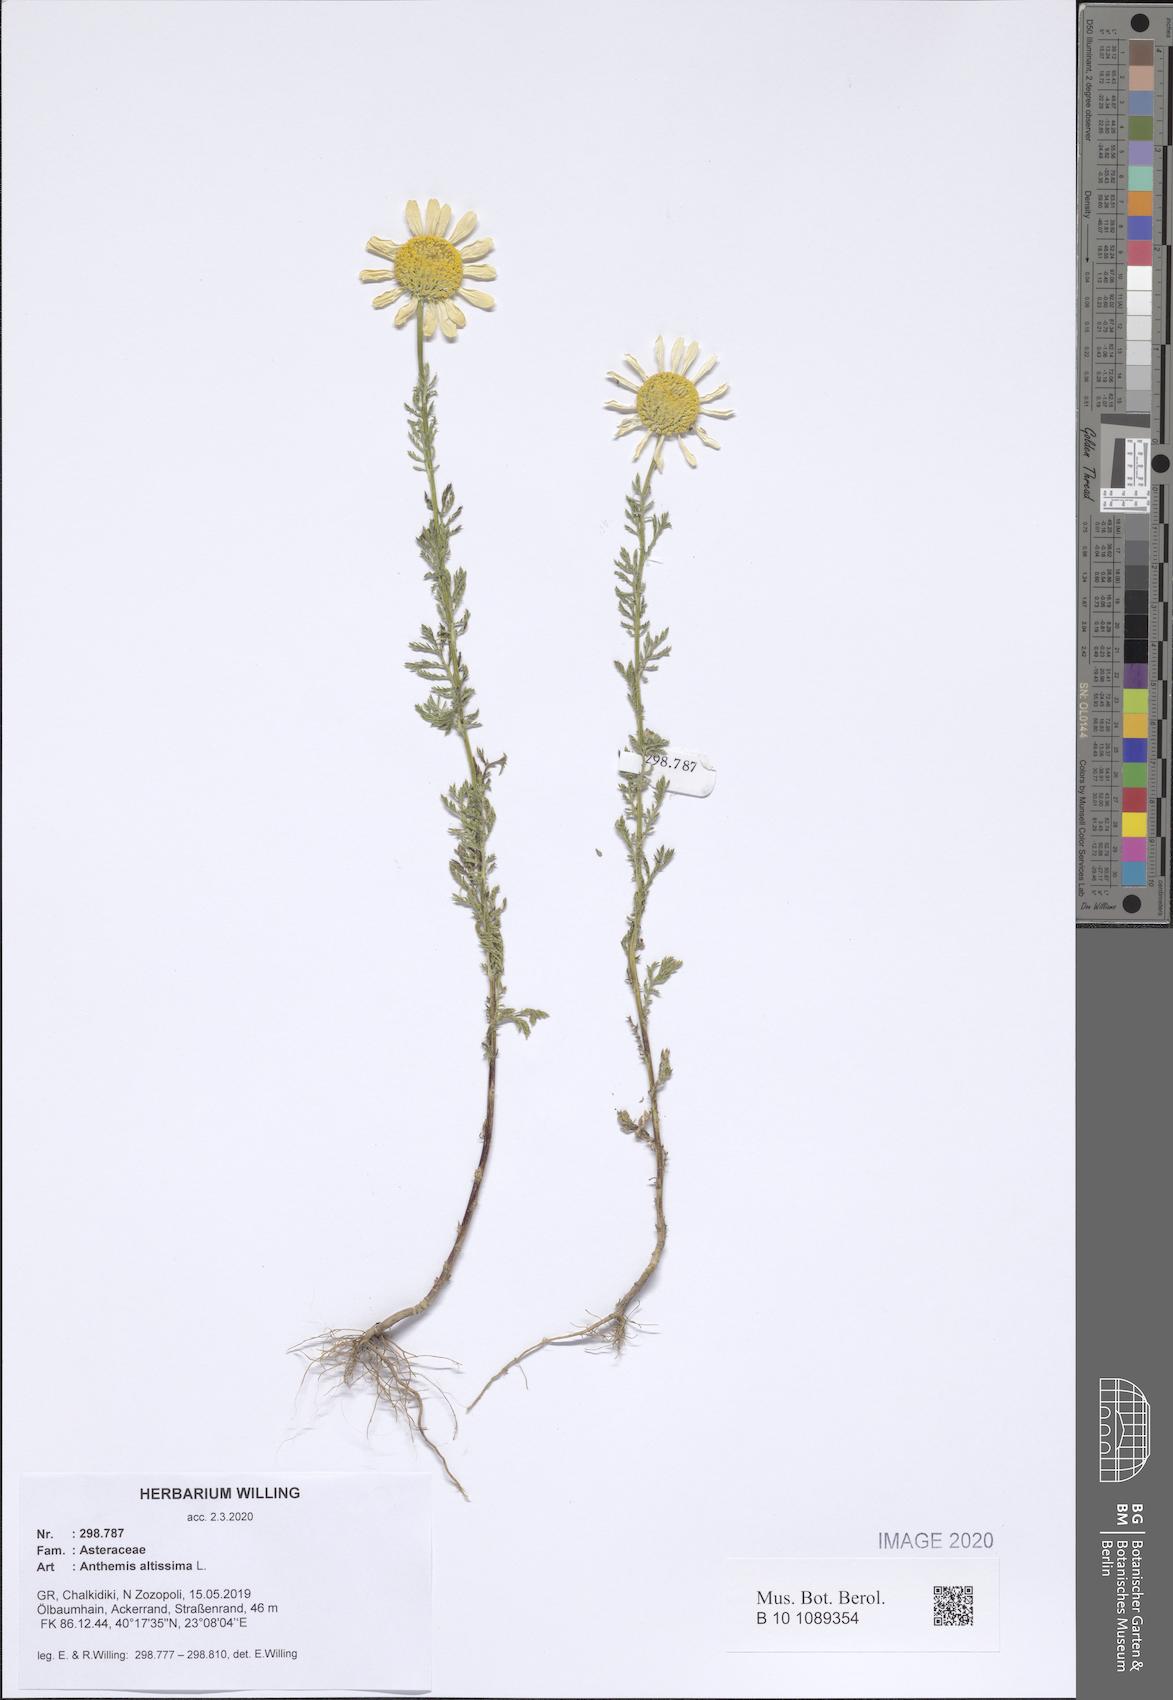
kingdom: Plantae
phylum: Tracheophyta
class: Magnoliopsida
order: Asterales
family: Asteraceae
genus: Cota
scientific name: Cota altissima
